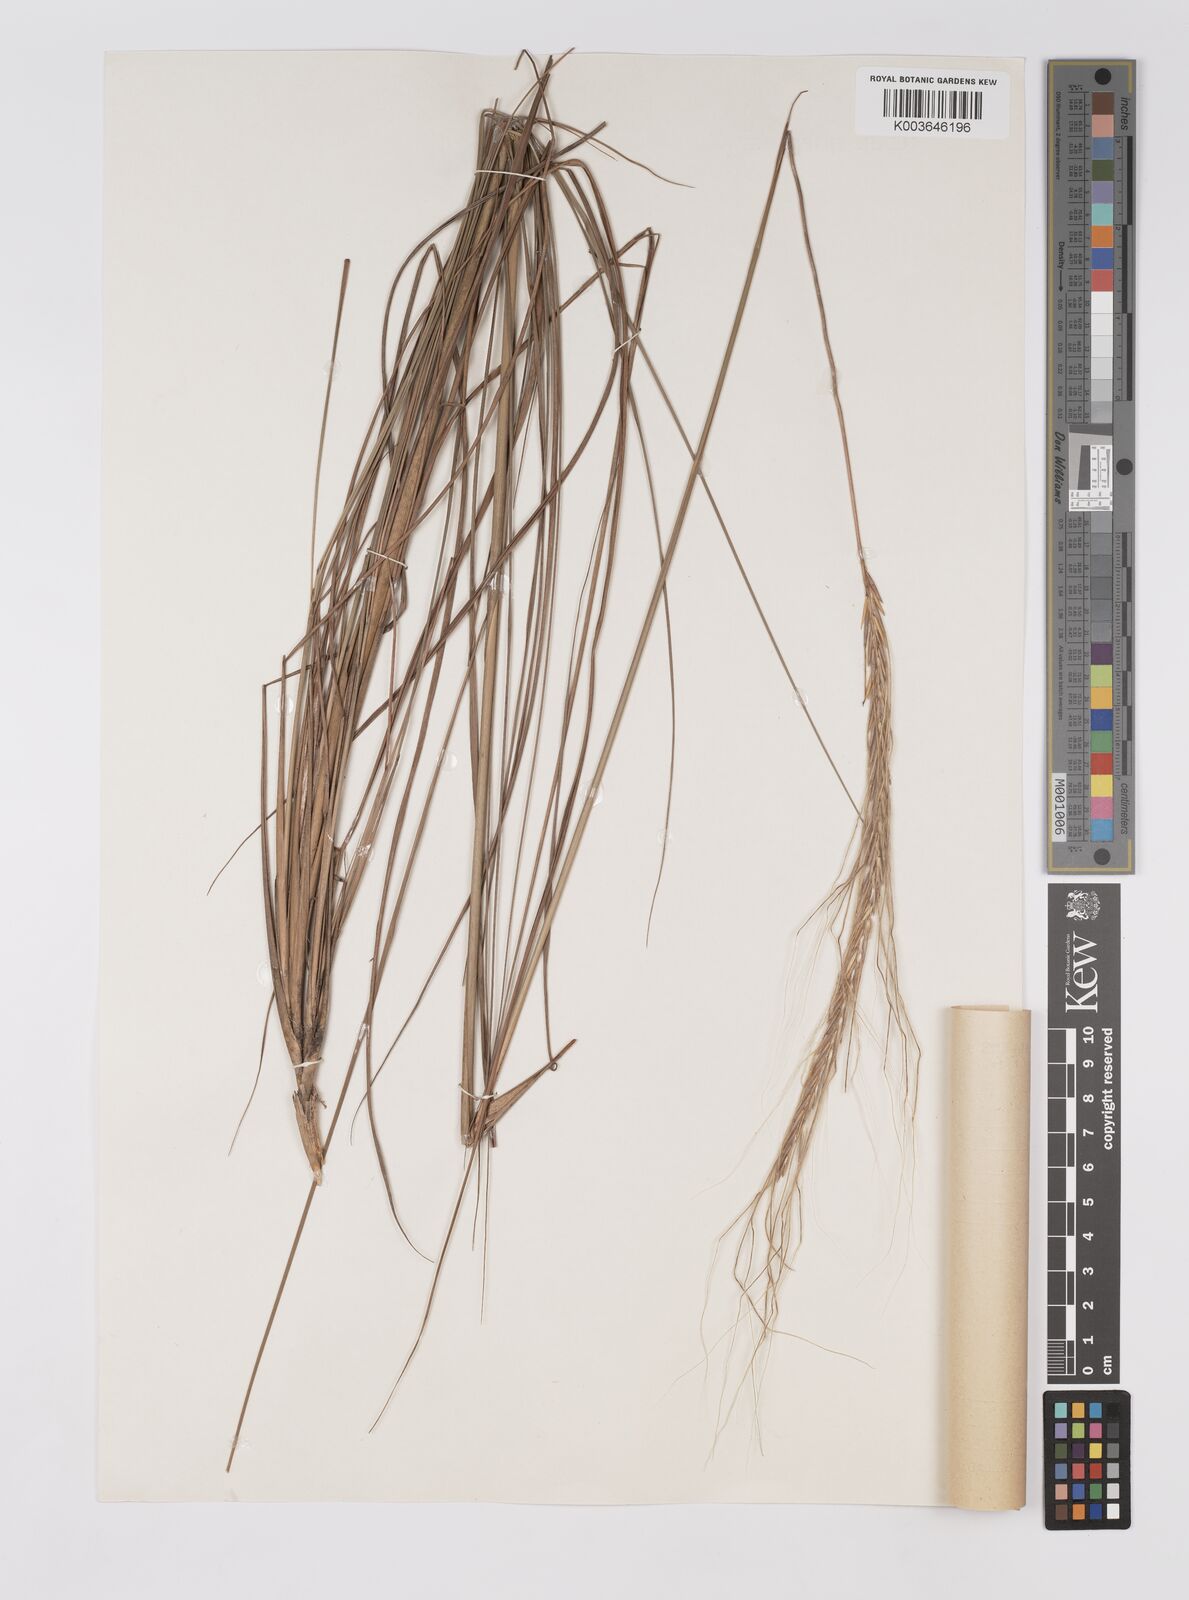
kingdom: Plantae
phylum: Tracheophyta
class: Liliopsida
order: Poales
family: Poaceae
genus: Trachypogon
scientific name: Trachypogon spicatus
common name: Crinkle-awn
